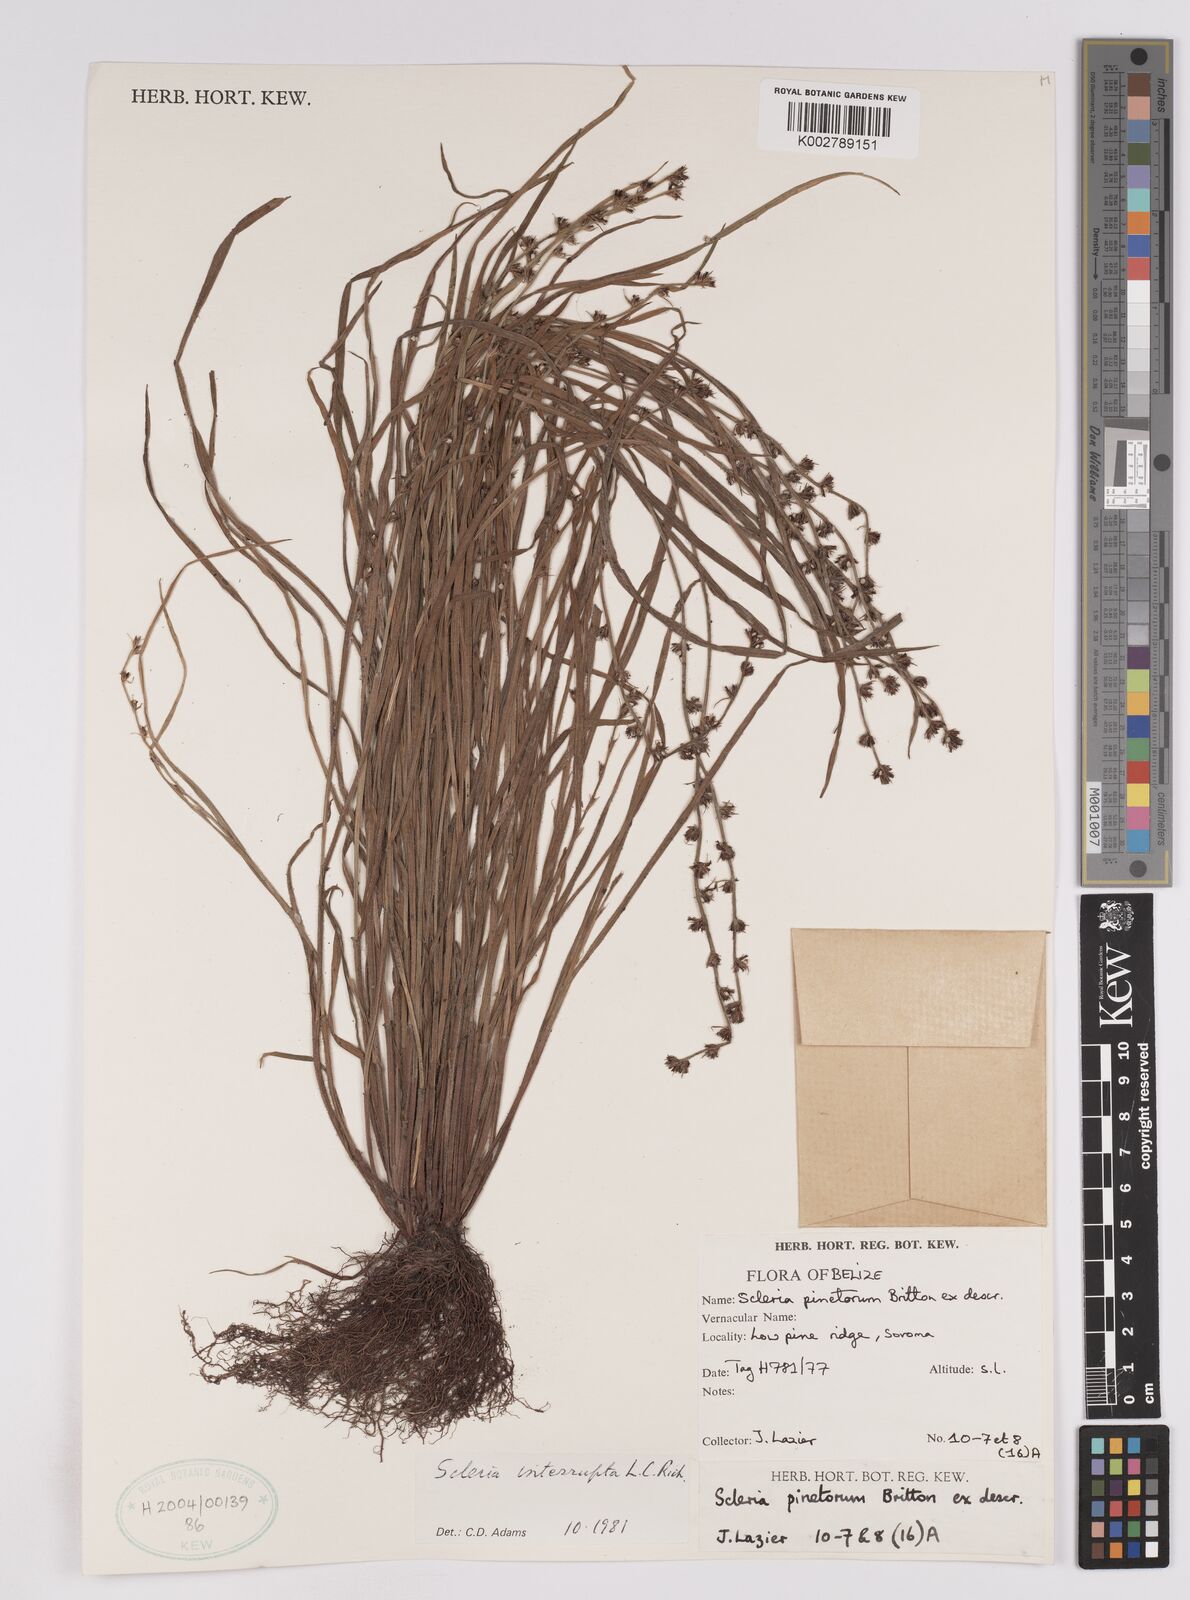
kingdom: Plantae
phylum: Tracheophyta
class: Liliopsida
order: Poales
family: Cyperaceae
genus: Scleria
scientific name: Scleria interrupta
